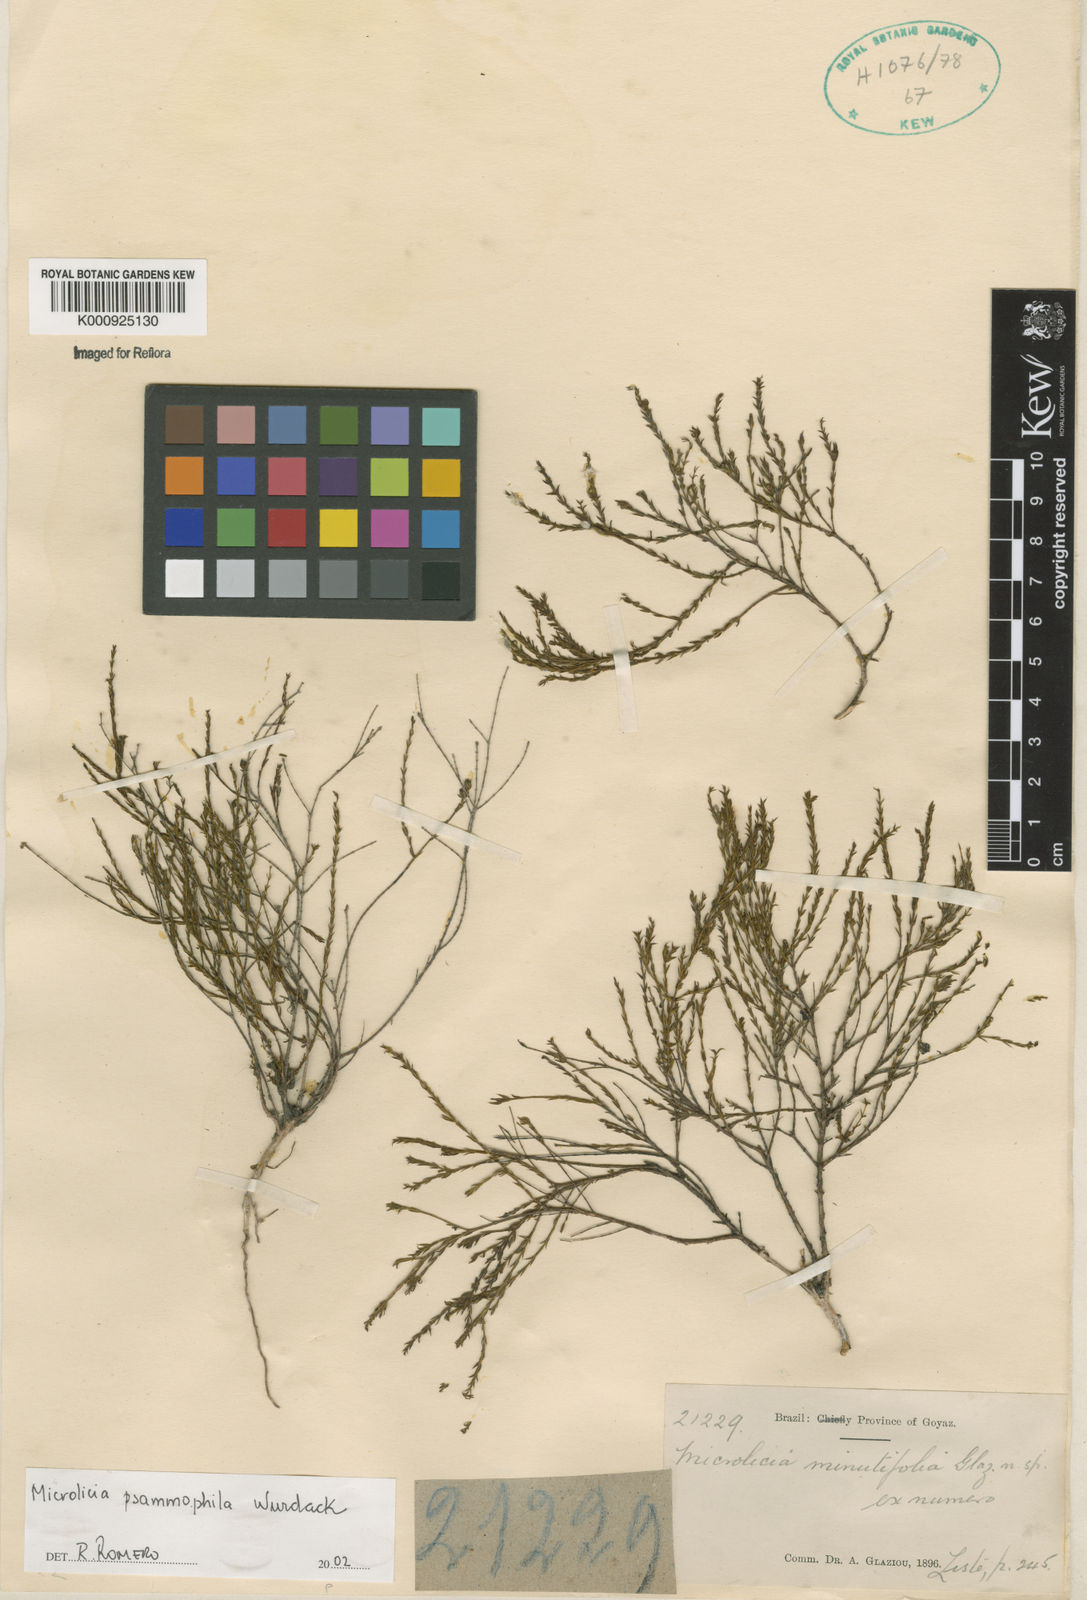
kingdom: Plantae
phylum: Tracheophyta
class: Magnoliopsida
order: Myrtales
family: Melastomataceae
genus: Microlicia
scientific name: Microlicia psammophila
